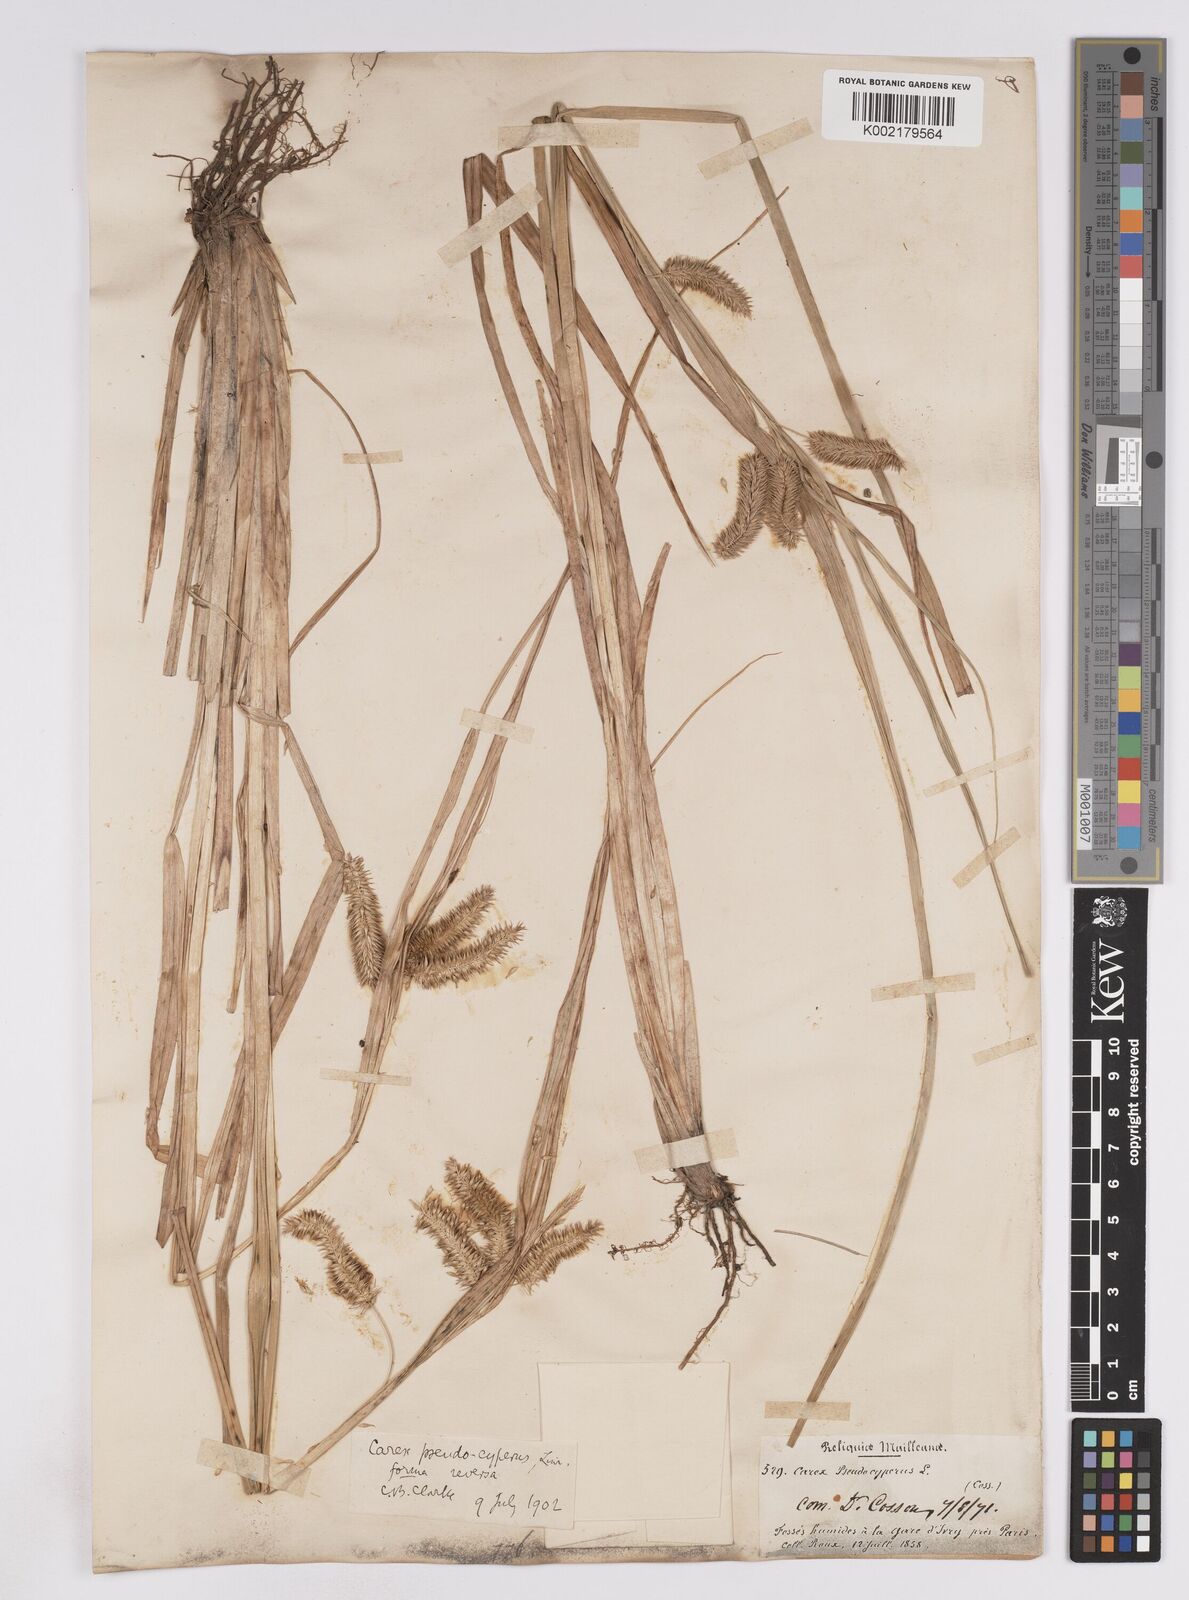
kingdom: Plantae
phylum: Tracheophyta
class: Liliopsida
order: Poales
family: Cyperaceae
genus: Carex
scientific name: Carex pseudocyperus
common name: Cyperus sedge
